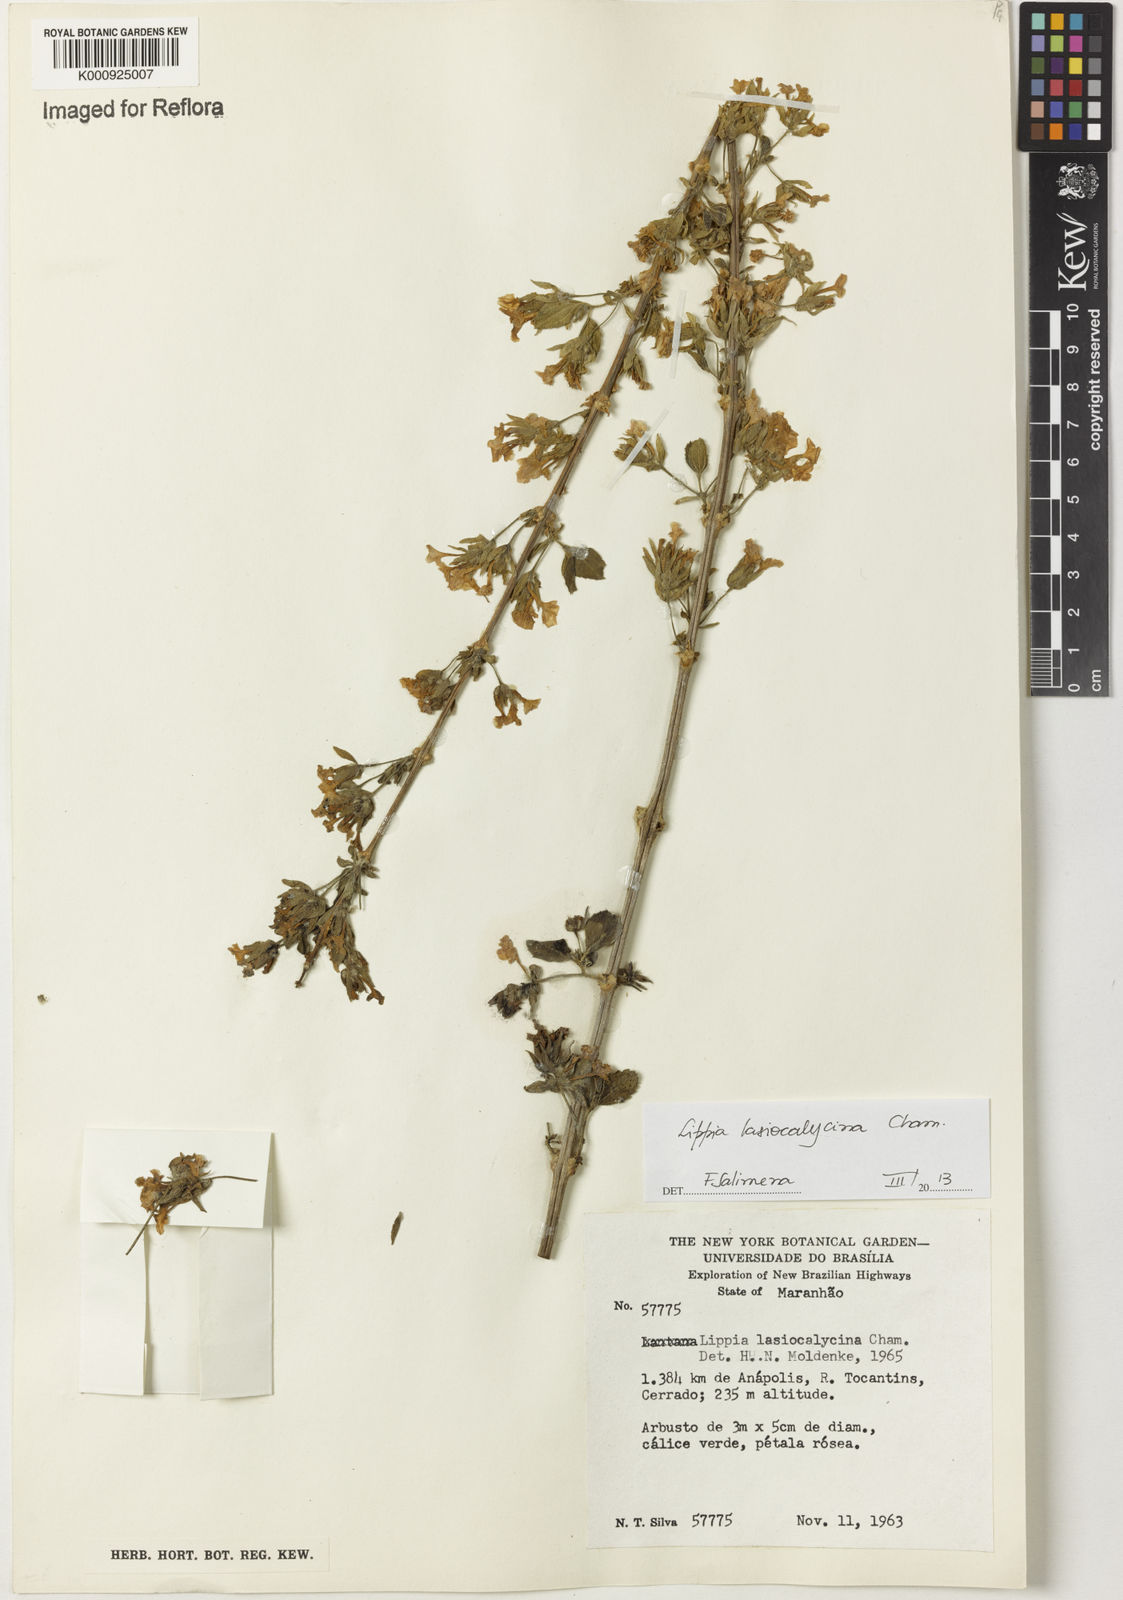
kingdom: Plantae
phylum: Tracheophyta
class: Magnoliopsida
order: Lamiales
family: Verbenaceae
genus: Lippia
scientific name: Lippia lasiocalycina
